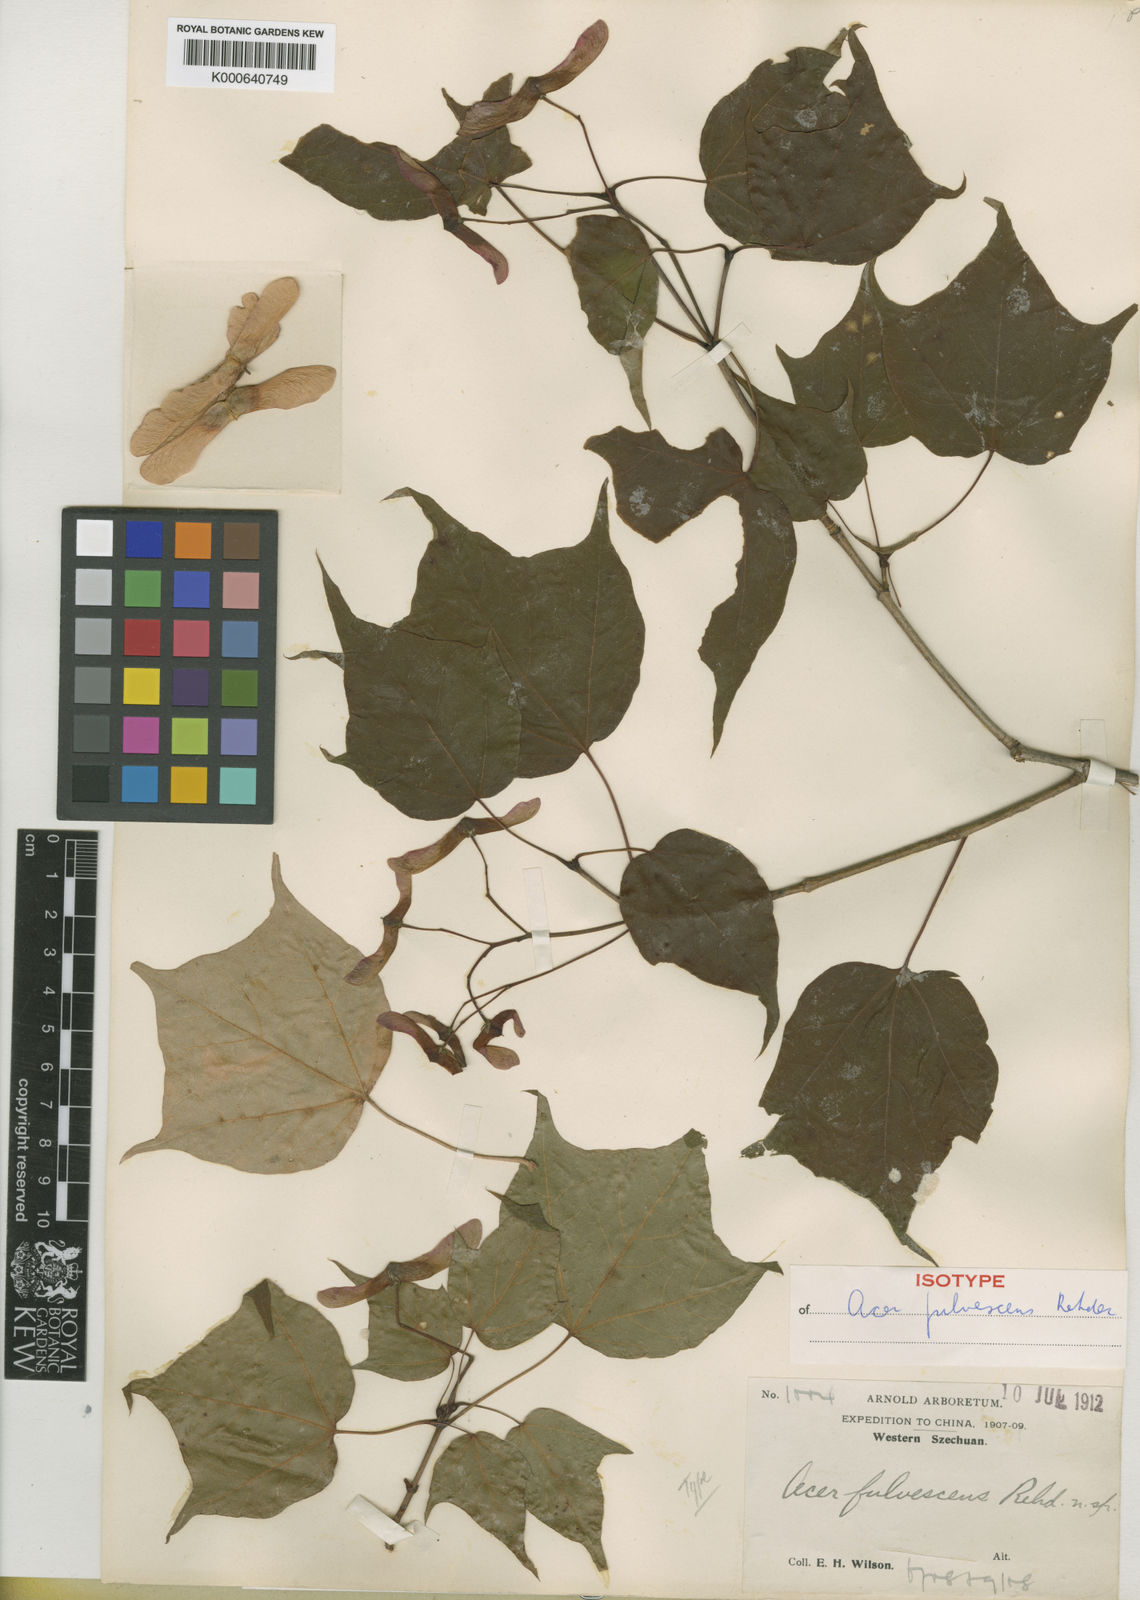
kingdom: Plantae
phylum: Tracheophyta
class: Magnoliopsida
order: Sapindales
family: Sapindaceae
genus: Acer
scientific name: Acer longipes
